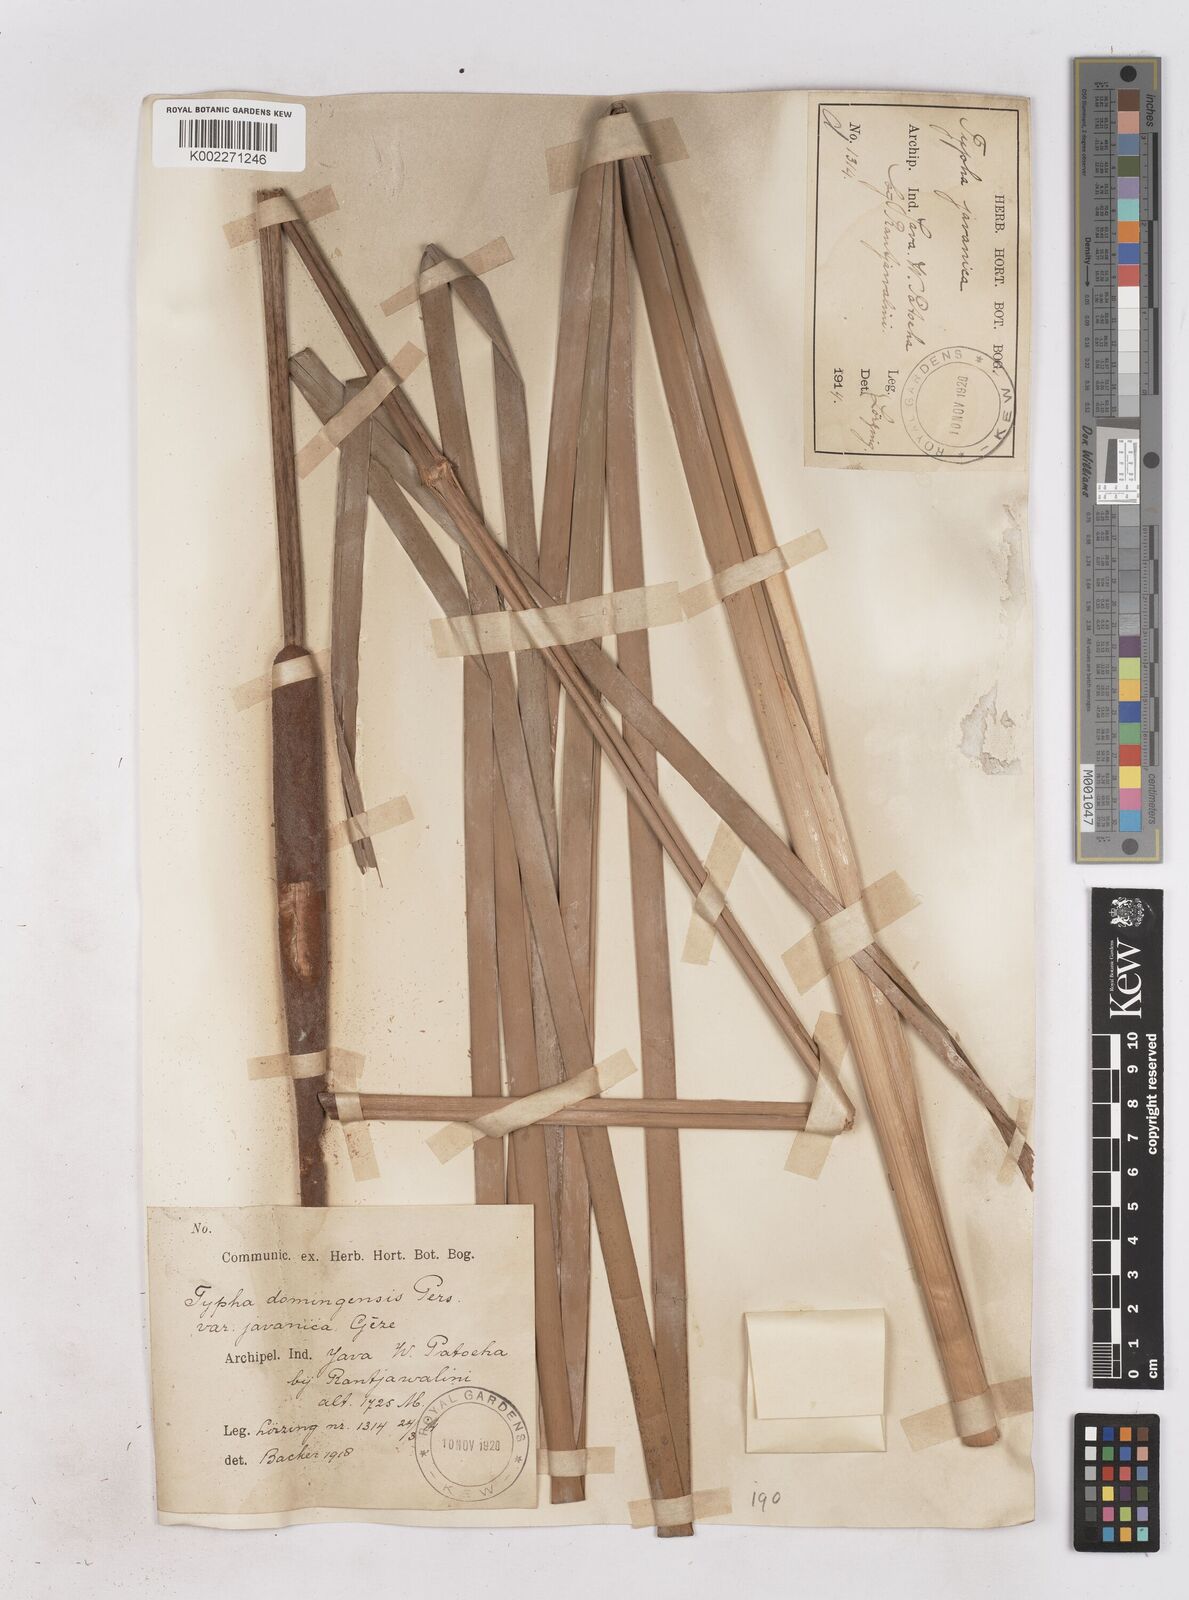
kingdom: Plantae
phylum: Tracheophyta
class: Liliopsida
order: Poales
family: Typhaceae
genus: Typha
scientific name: Typha domingensis
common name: Southern cattail
